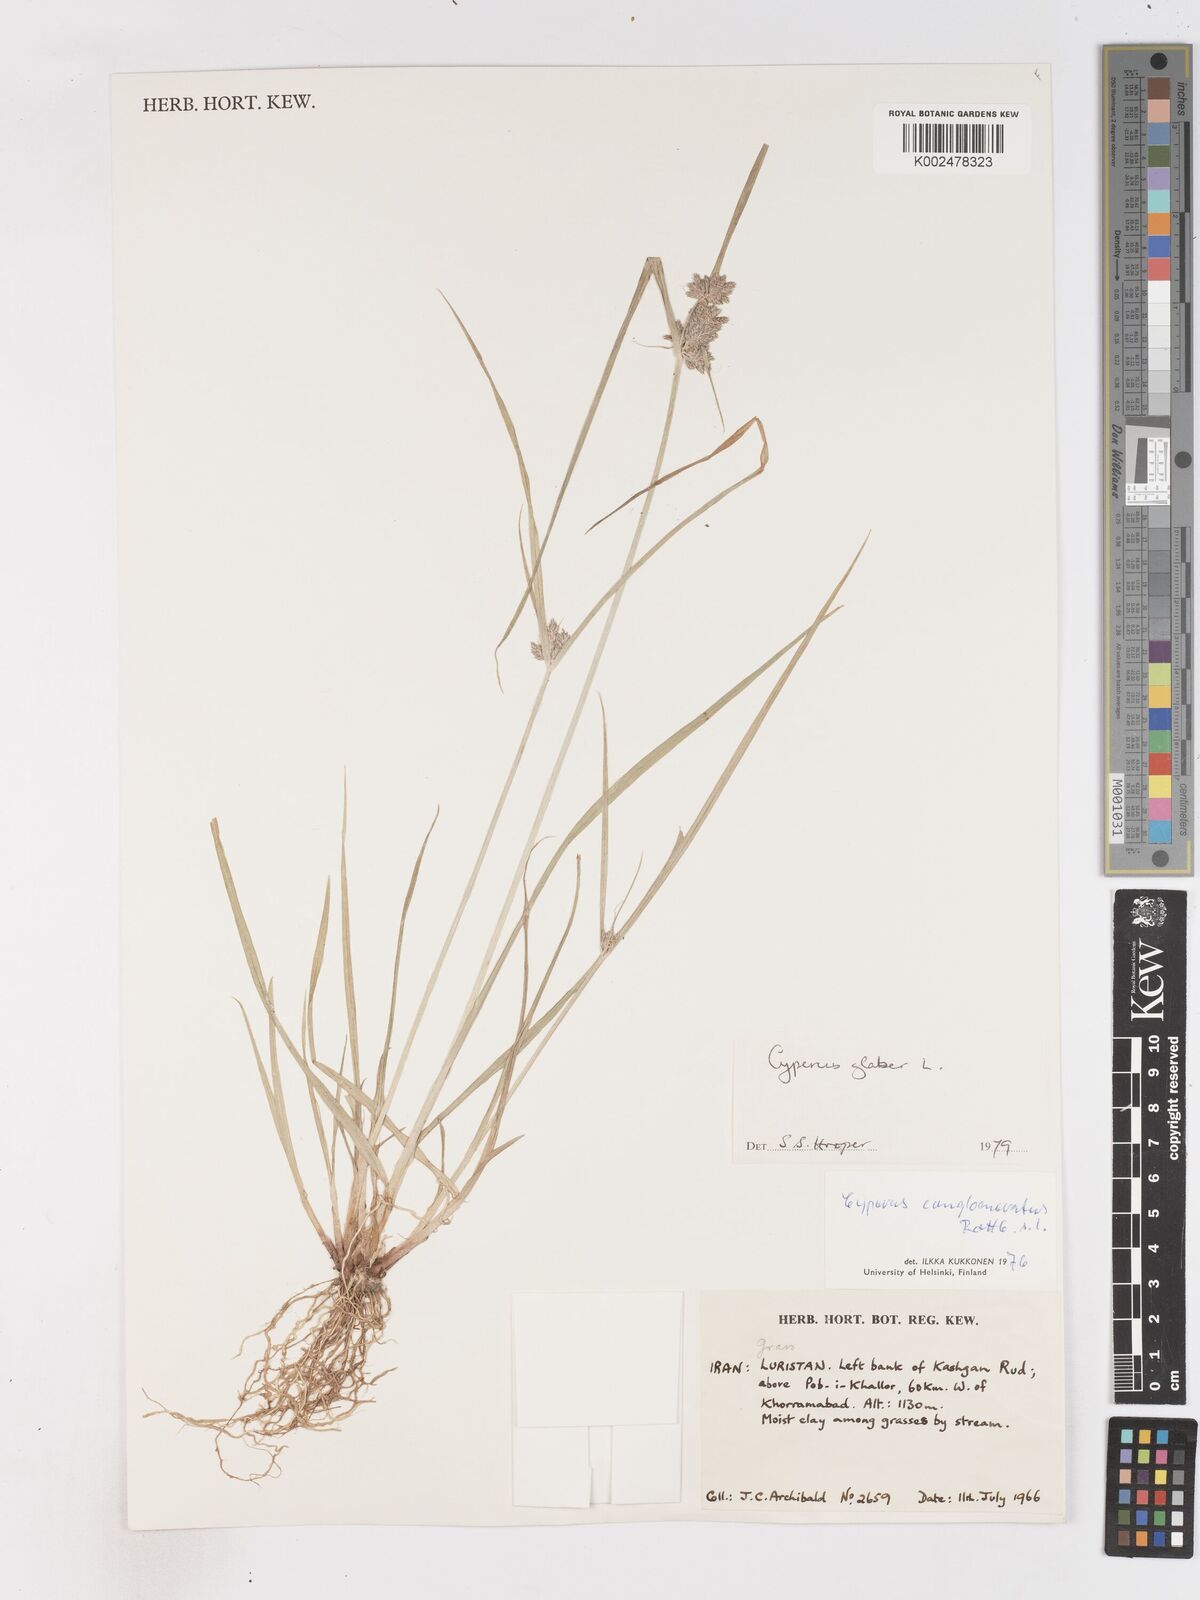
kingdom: Plantae
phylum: Tracheophyta
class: Liliopsida
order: Poales
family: Cyperaceae
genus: Cyperus
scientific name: Cyperus glaber
